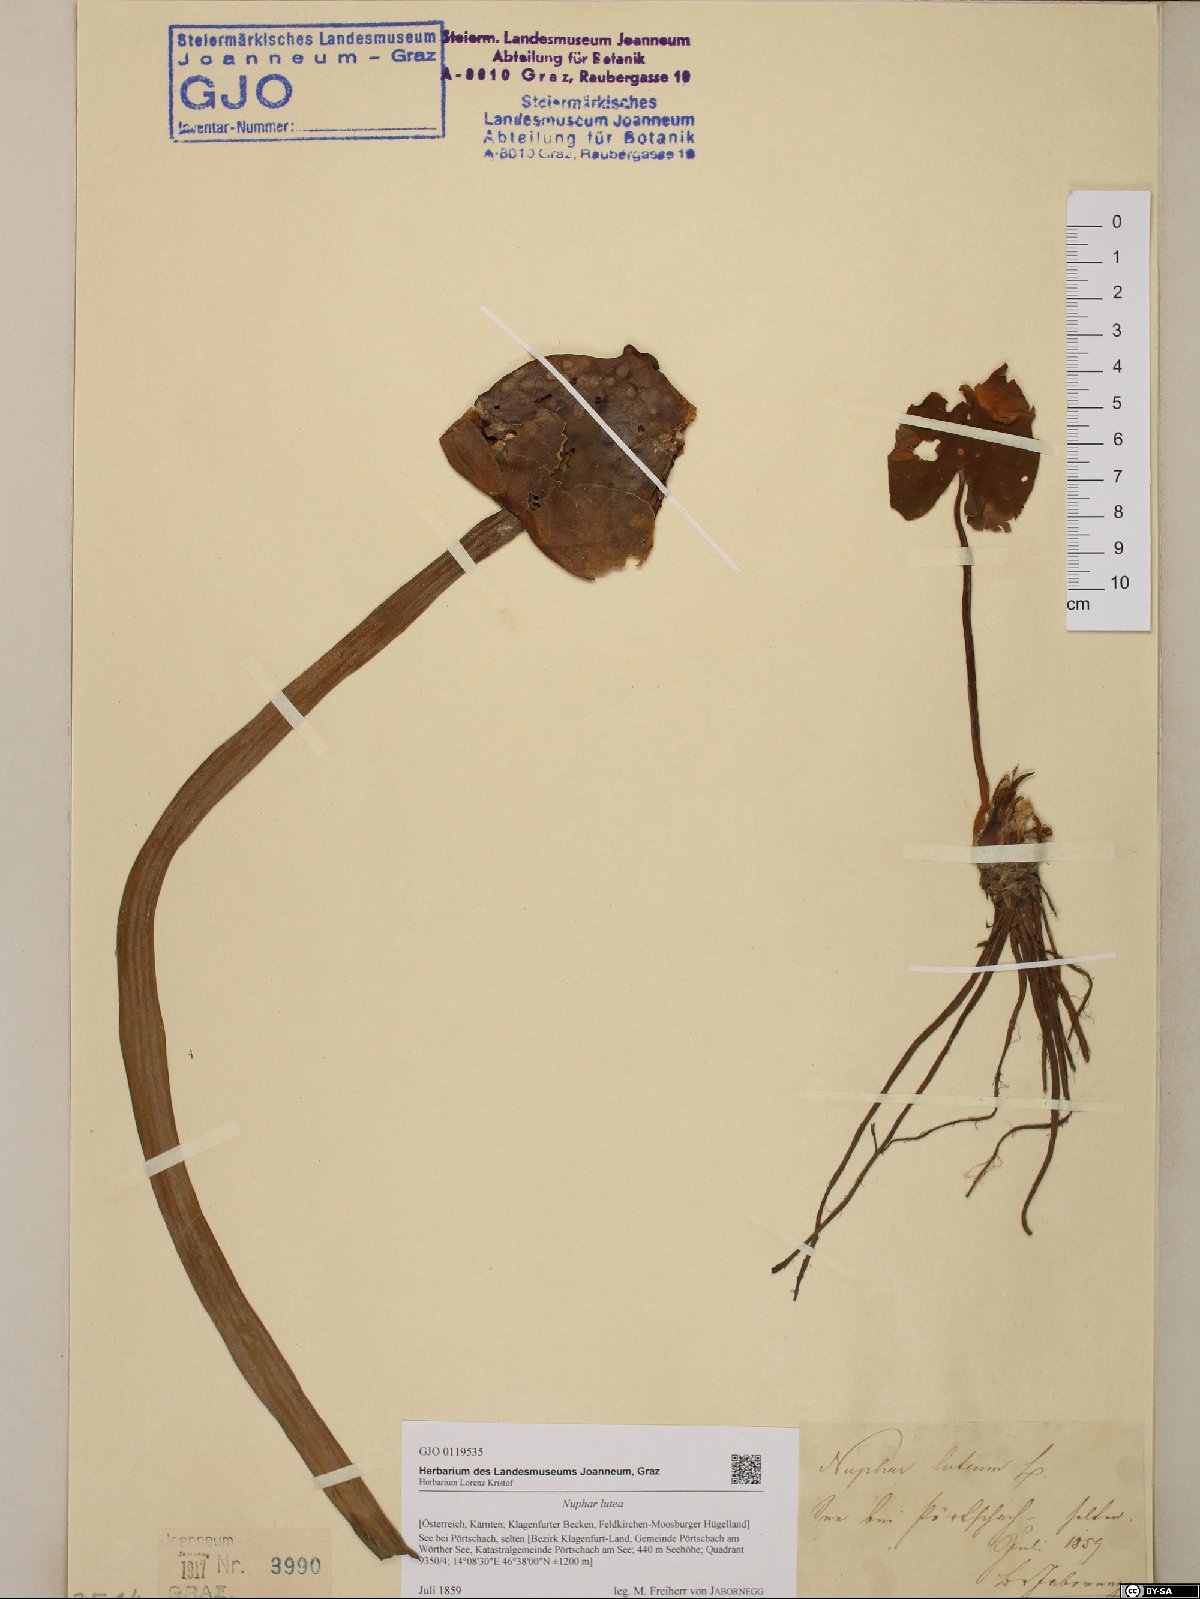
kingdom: Plantae
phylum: Tracheophyta
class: Magnoliopsida
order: Nymphaeales
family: Nymphaeaceae
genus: Nuphar
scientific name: Nuphar lutea
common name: Yellow water-lily
